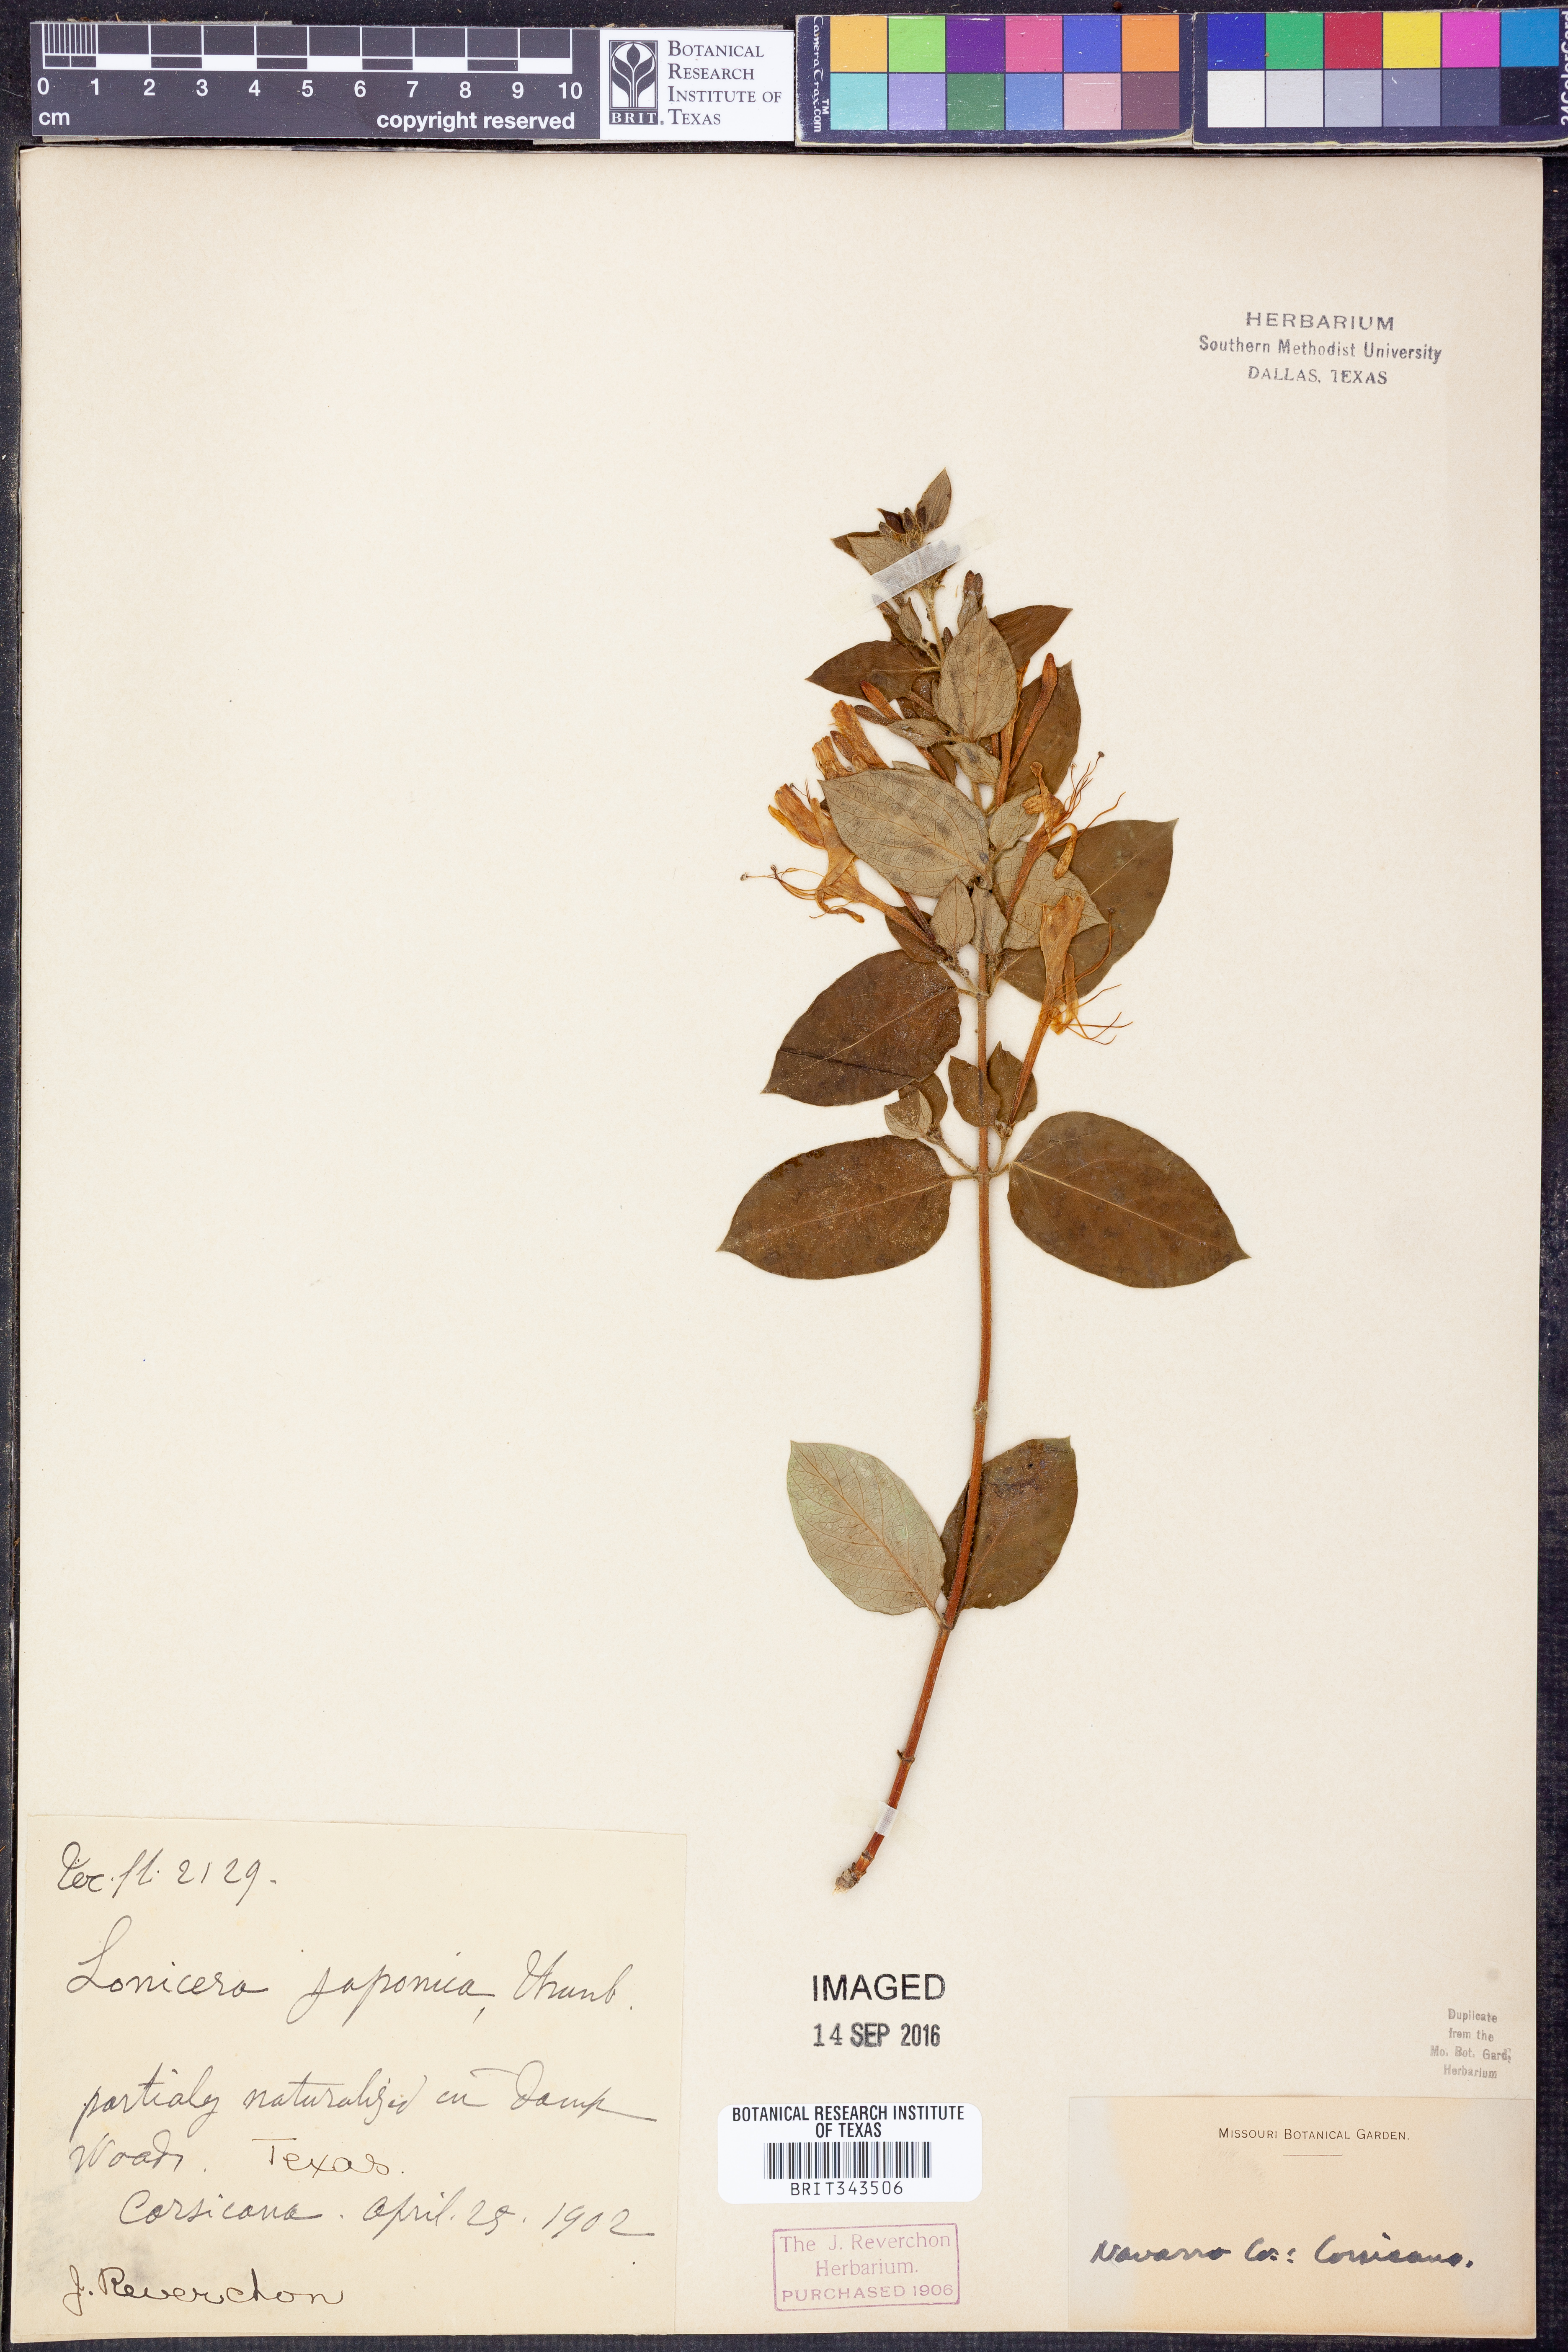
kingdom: Plantae
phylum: Tracheophyta
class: Magnoliopsida
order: Dipsacales
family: Caprifoliaceae
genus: Lonicera
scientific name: Lonicera japonica
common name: Japanese honeysuckle
